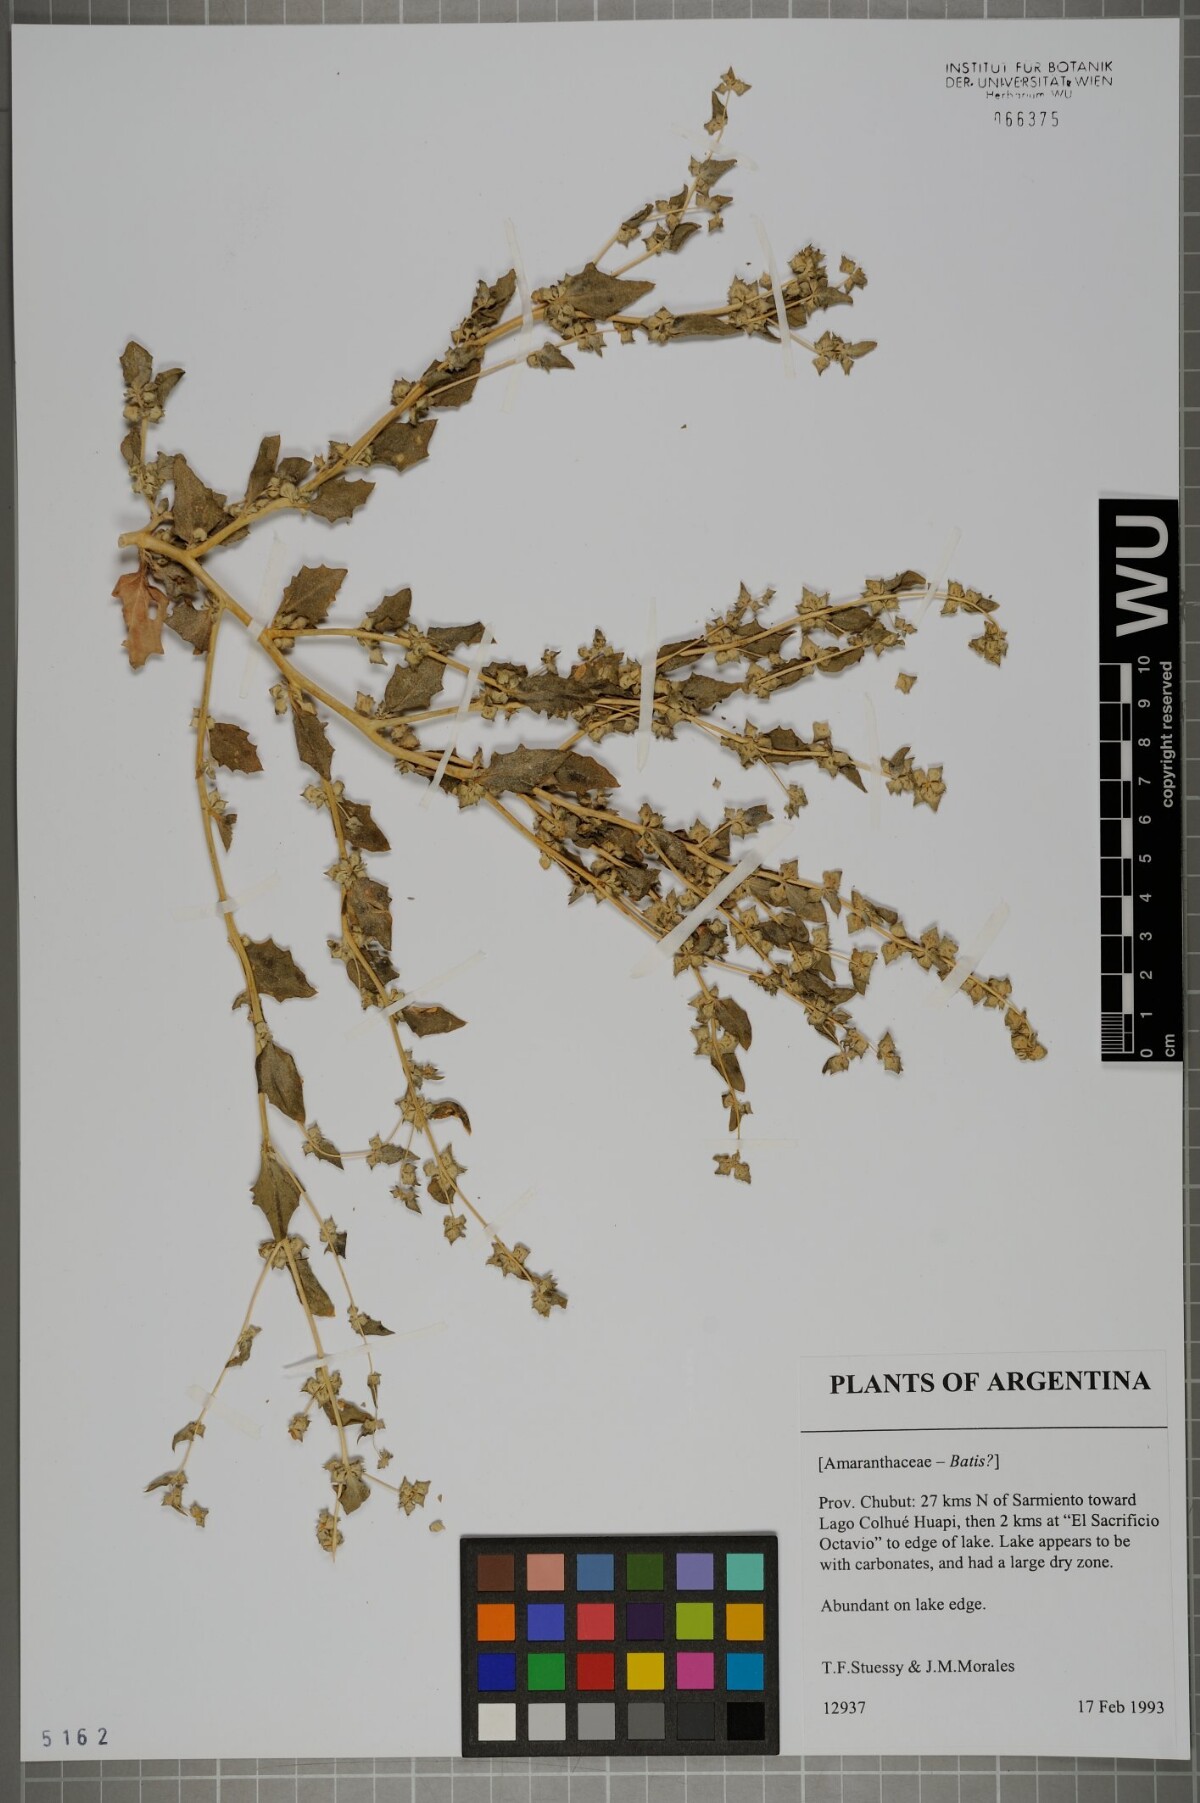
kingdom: Plantae
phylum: Tracheophyta
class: Magnoliopsida
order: Brassicales
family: Bataceae
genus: Batis
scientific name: Batis
